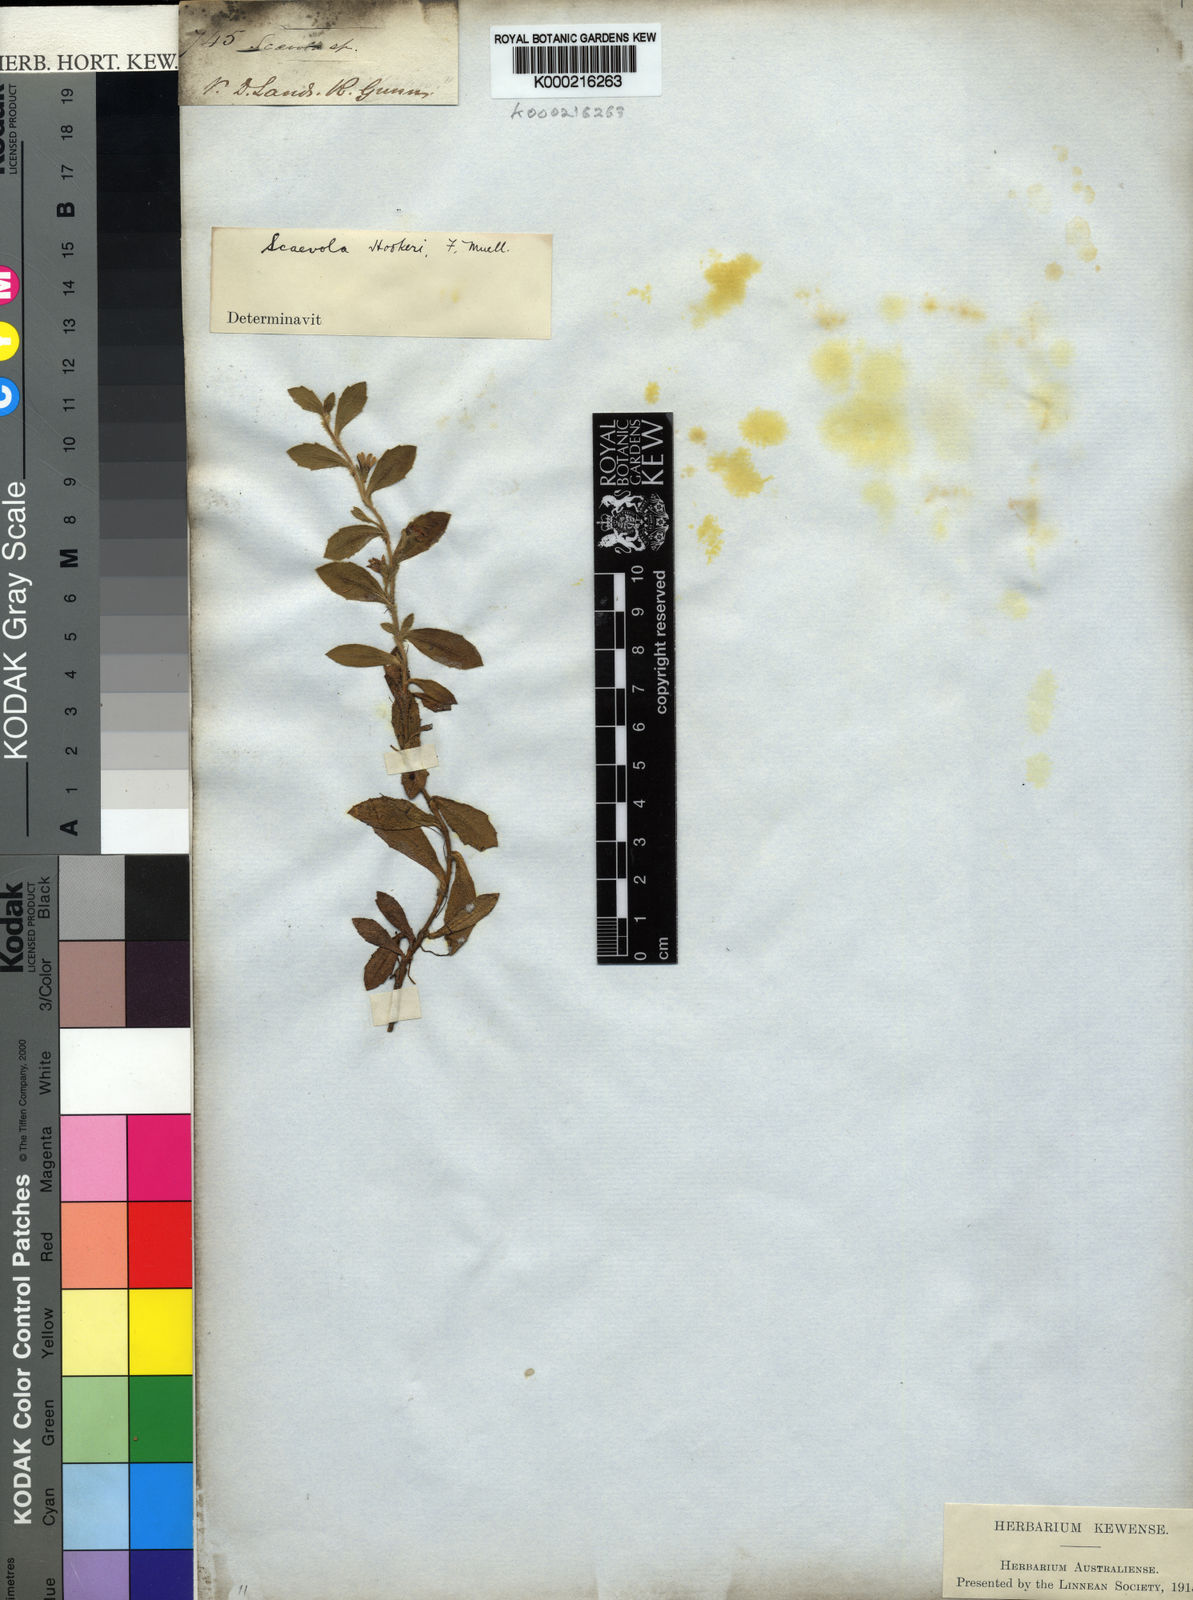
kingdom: Plantae
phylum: Tracheophyta
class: Magnoliopsida
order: Asterales
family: Goodeniaceae
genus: Scaevola
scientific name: Scaevola hookeri
